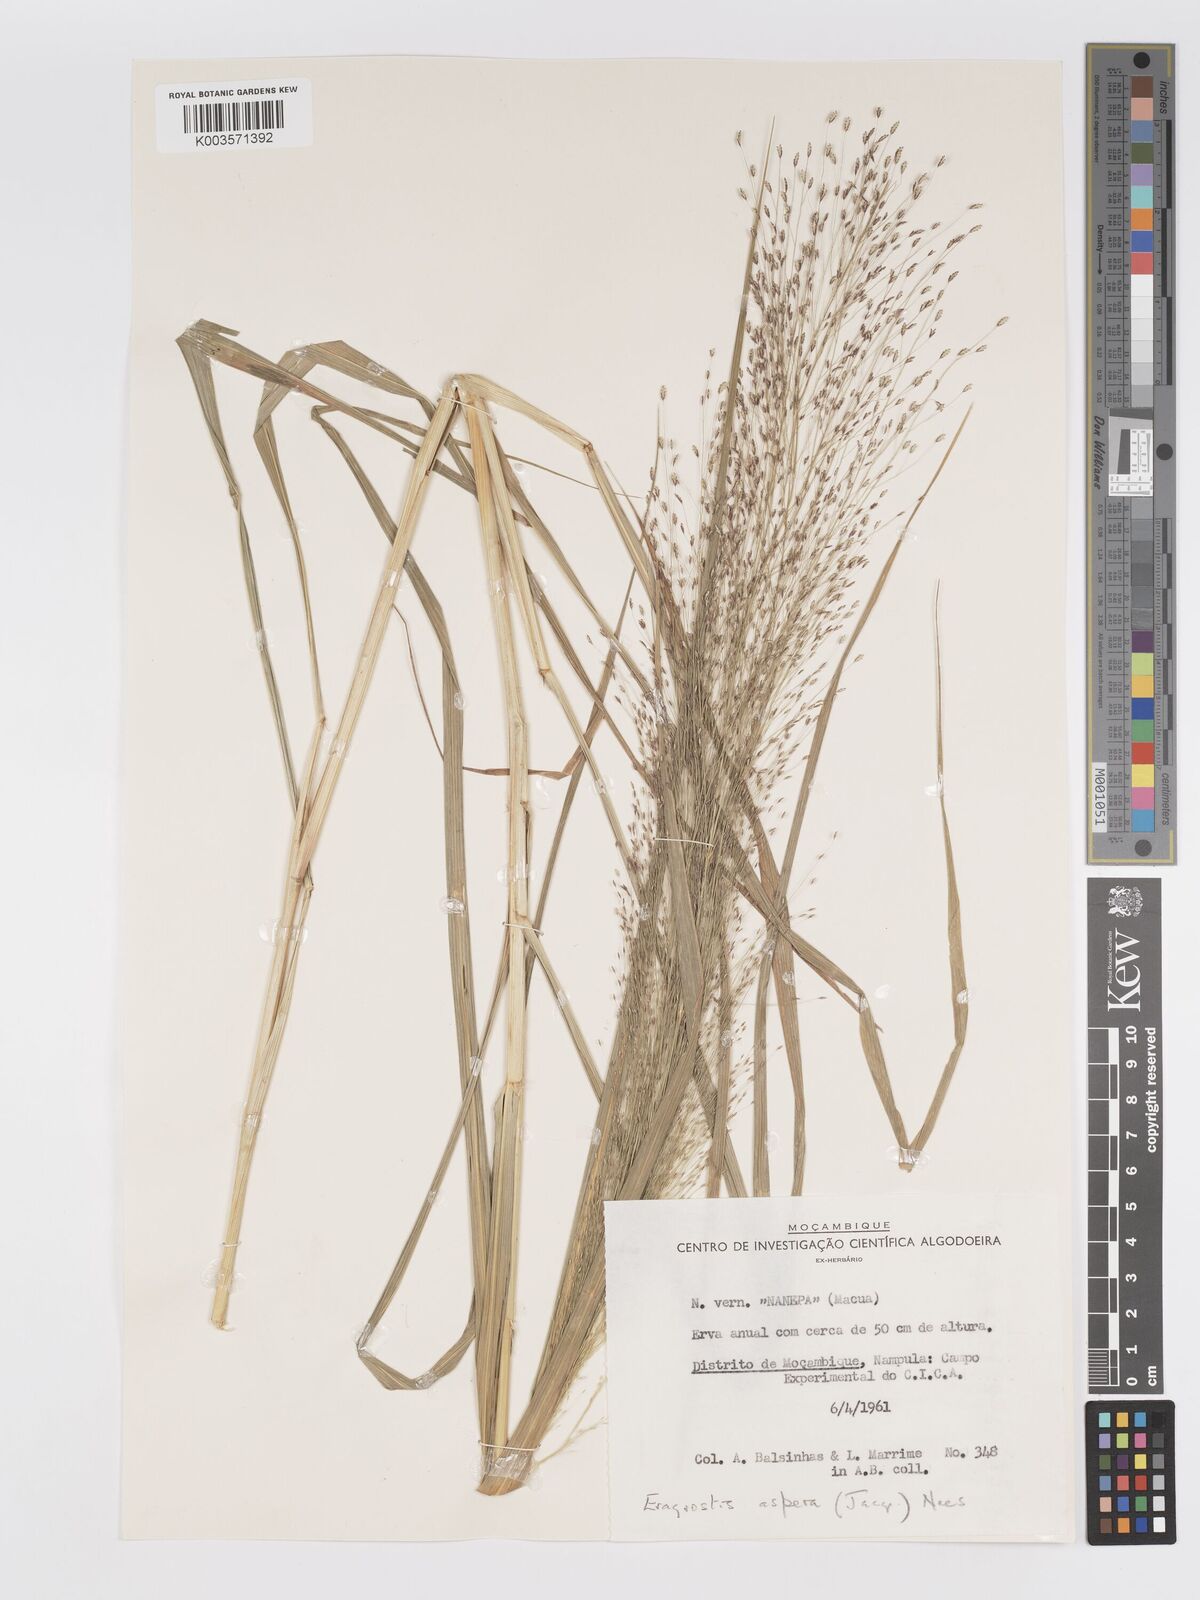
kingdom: Plantae
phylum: Tracheophyta
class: Liliopsida
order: Poales
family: Poaceae
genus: Eragrostis
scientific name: Eragrostis aspera
